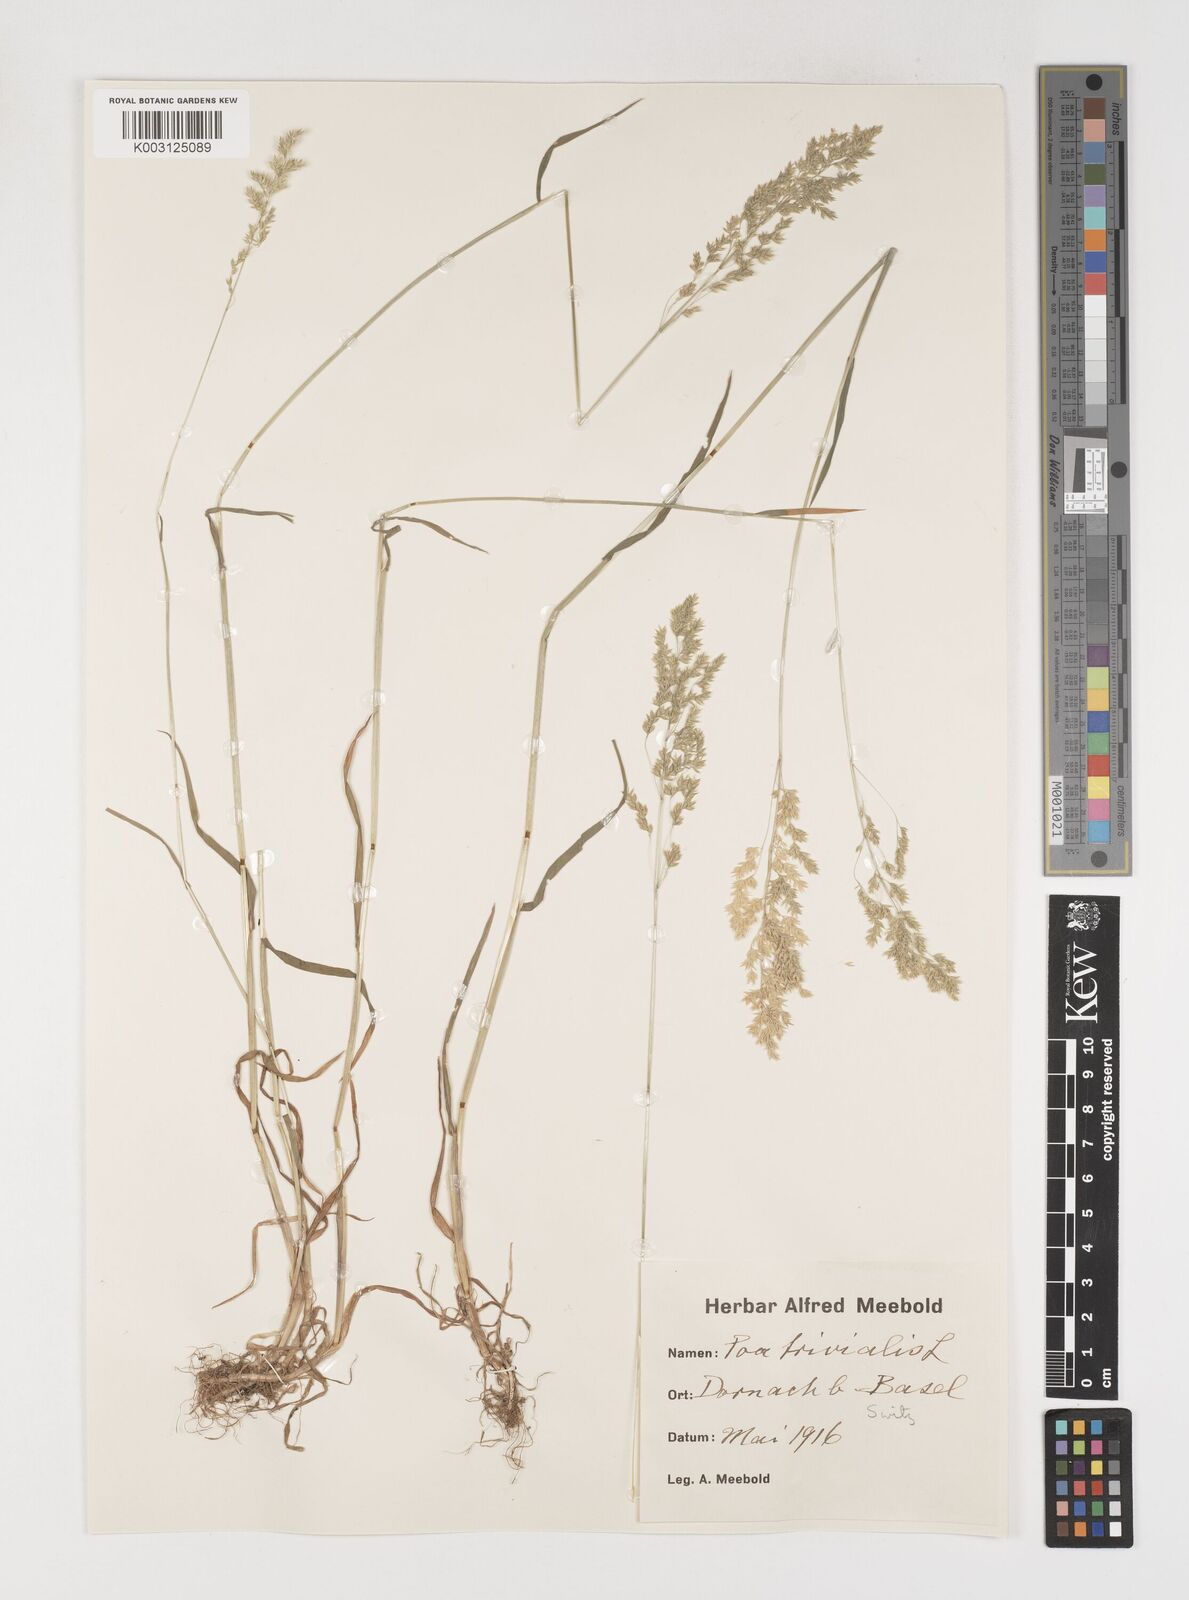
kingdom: Plantae
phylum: Tracheophyta
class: Liliopsida
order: Poales
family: Poaceae
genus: Poa
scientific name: Poa trivialis
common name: Rough bluegrass
